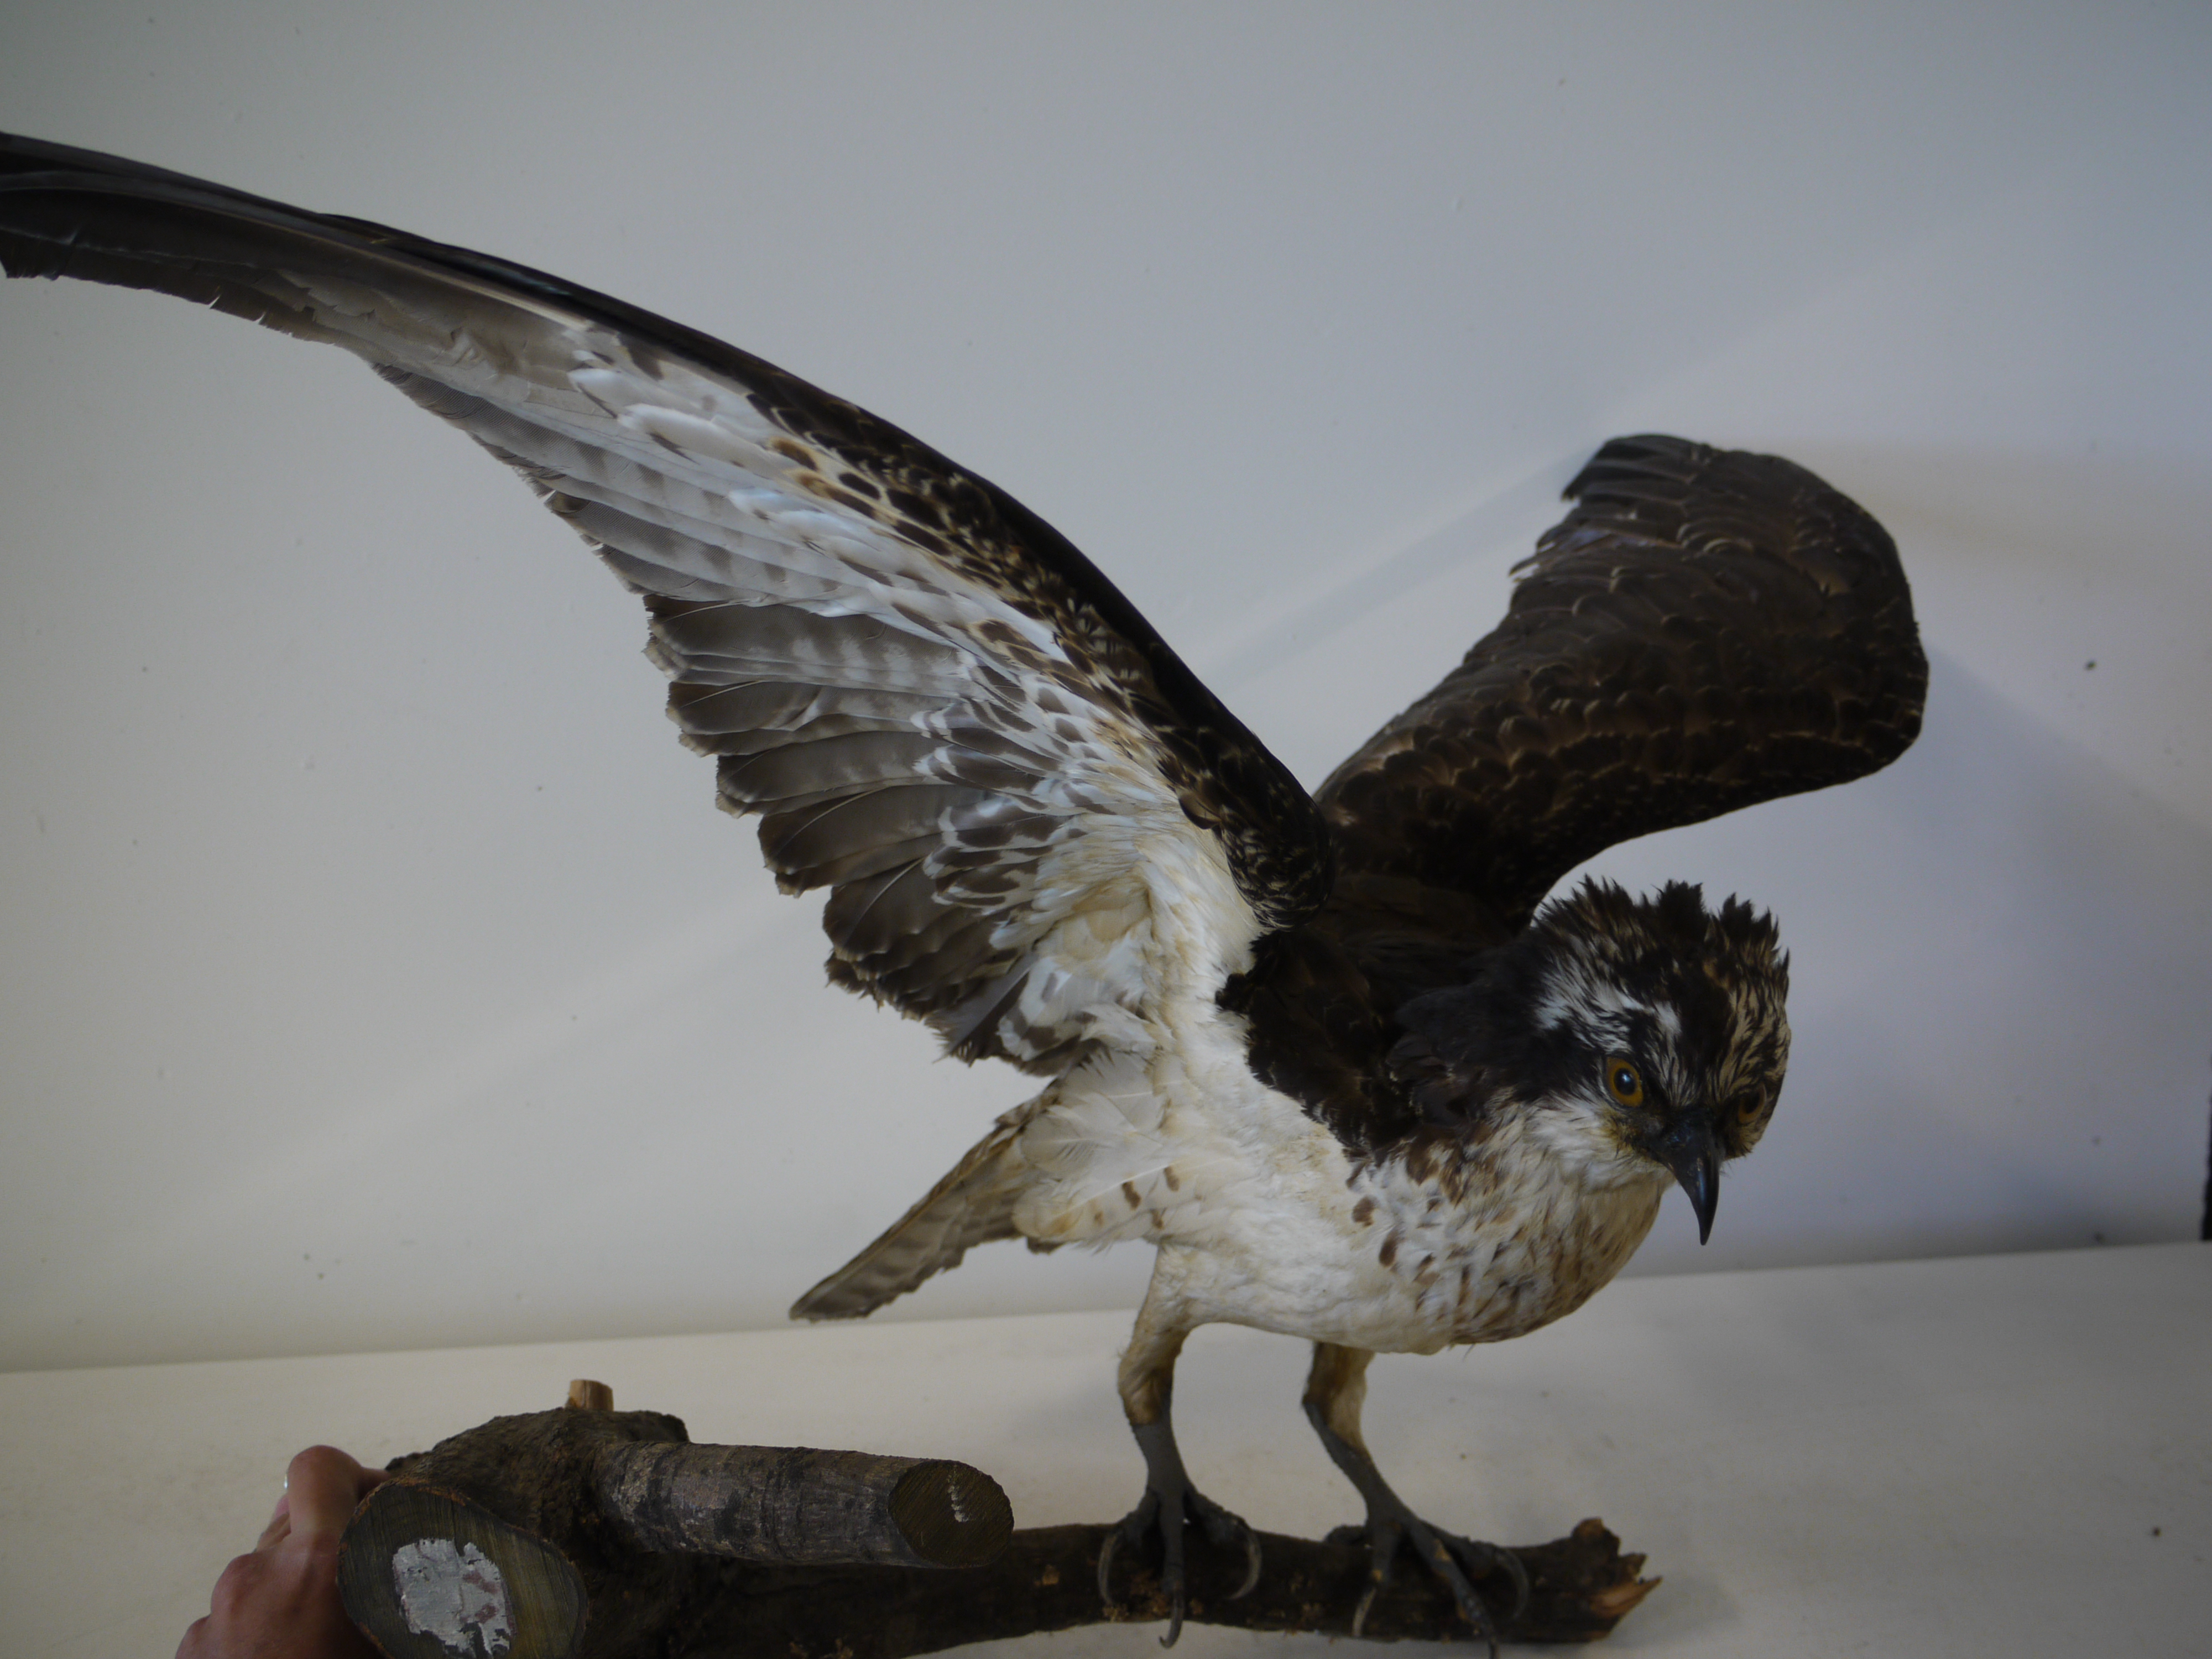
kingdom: Animalia
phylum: Chordata
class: Aves
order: Accipitriformes
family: Pandionidae
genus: Pandion
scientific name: Pandion haliaetus
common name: Osprey
